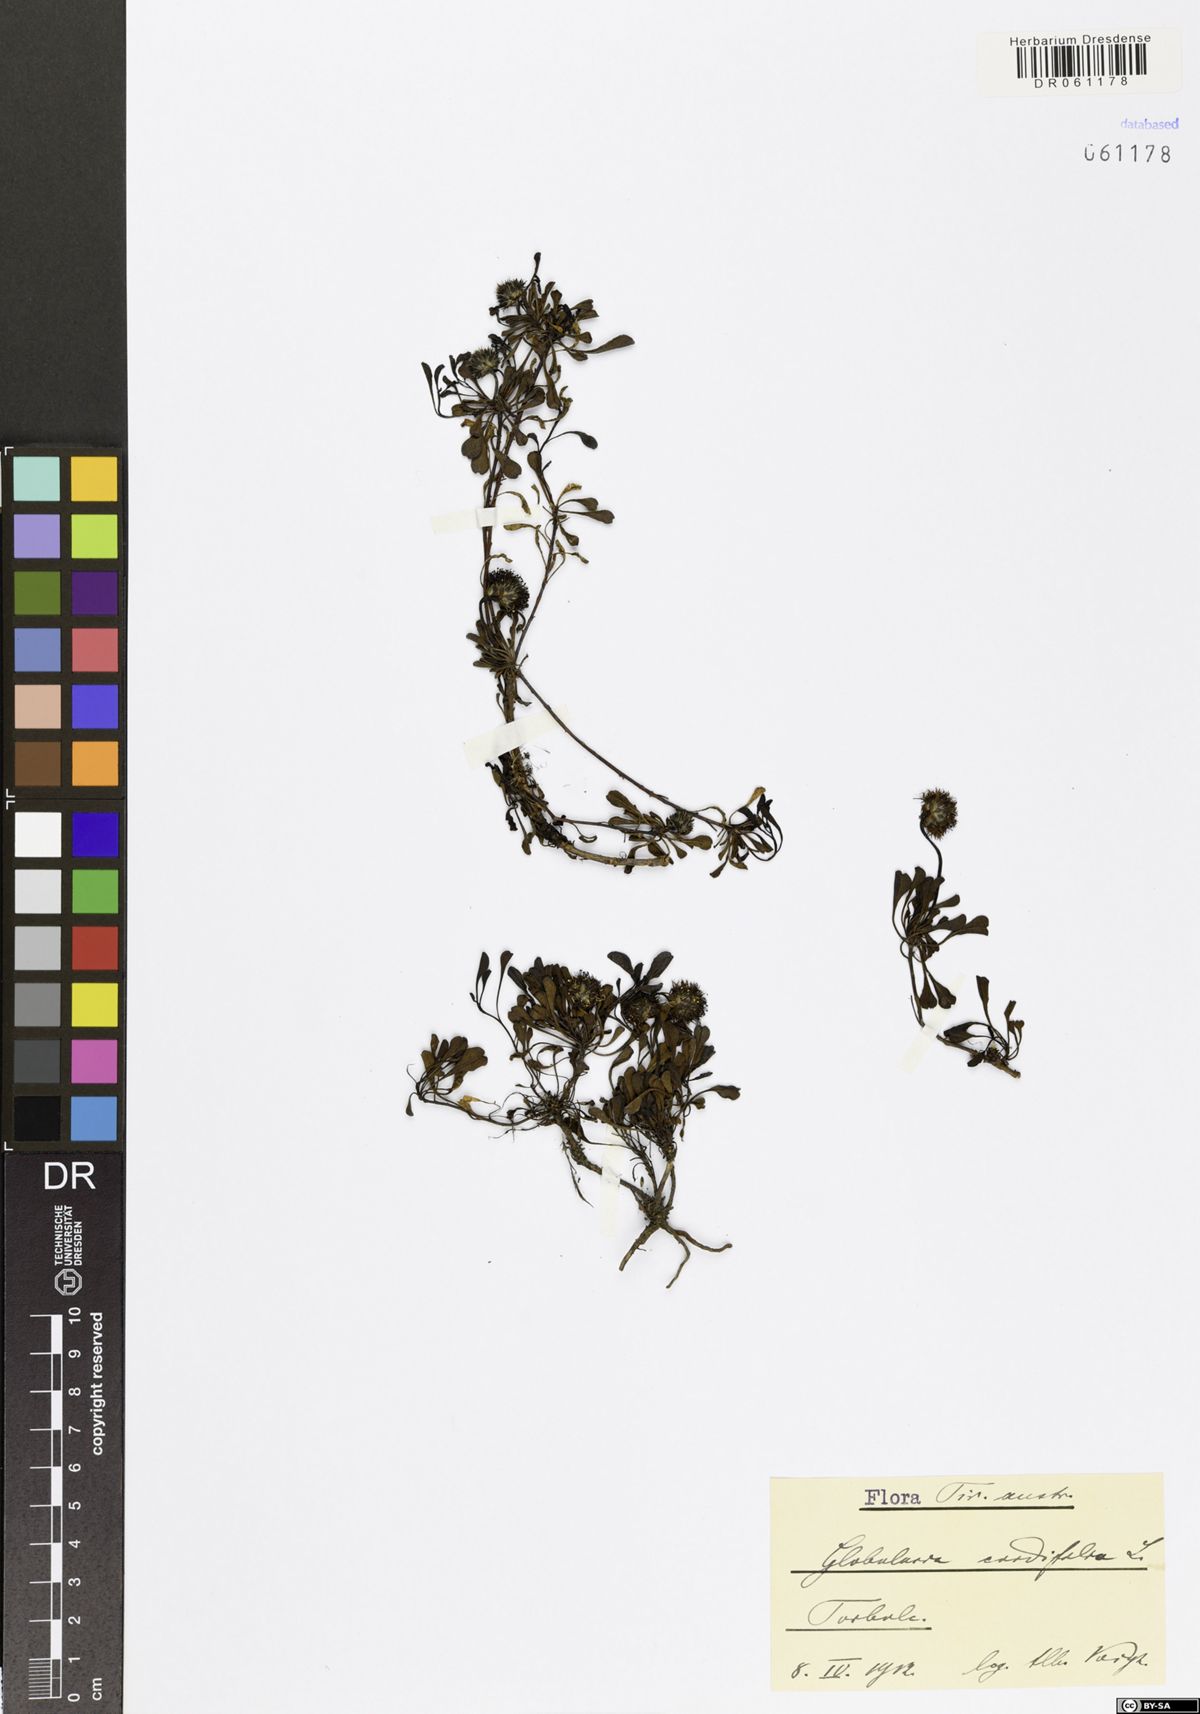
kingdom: Plantae
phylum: Tracheophyta
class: Magnoliopsida
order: Lamiales
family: Plantaginaceae
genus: Globularia
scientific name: Globularia cordifolia
